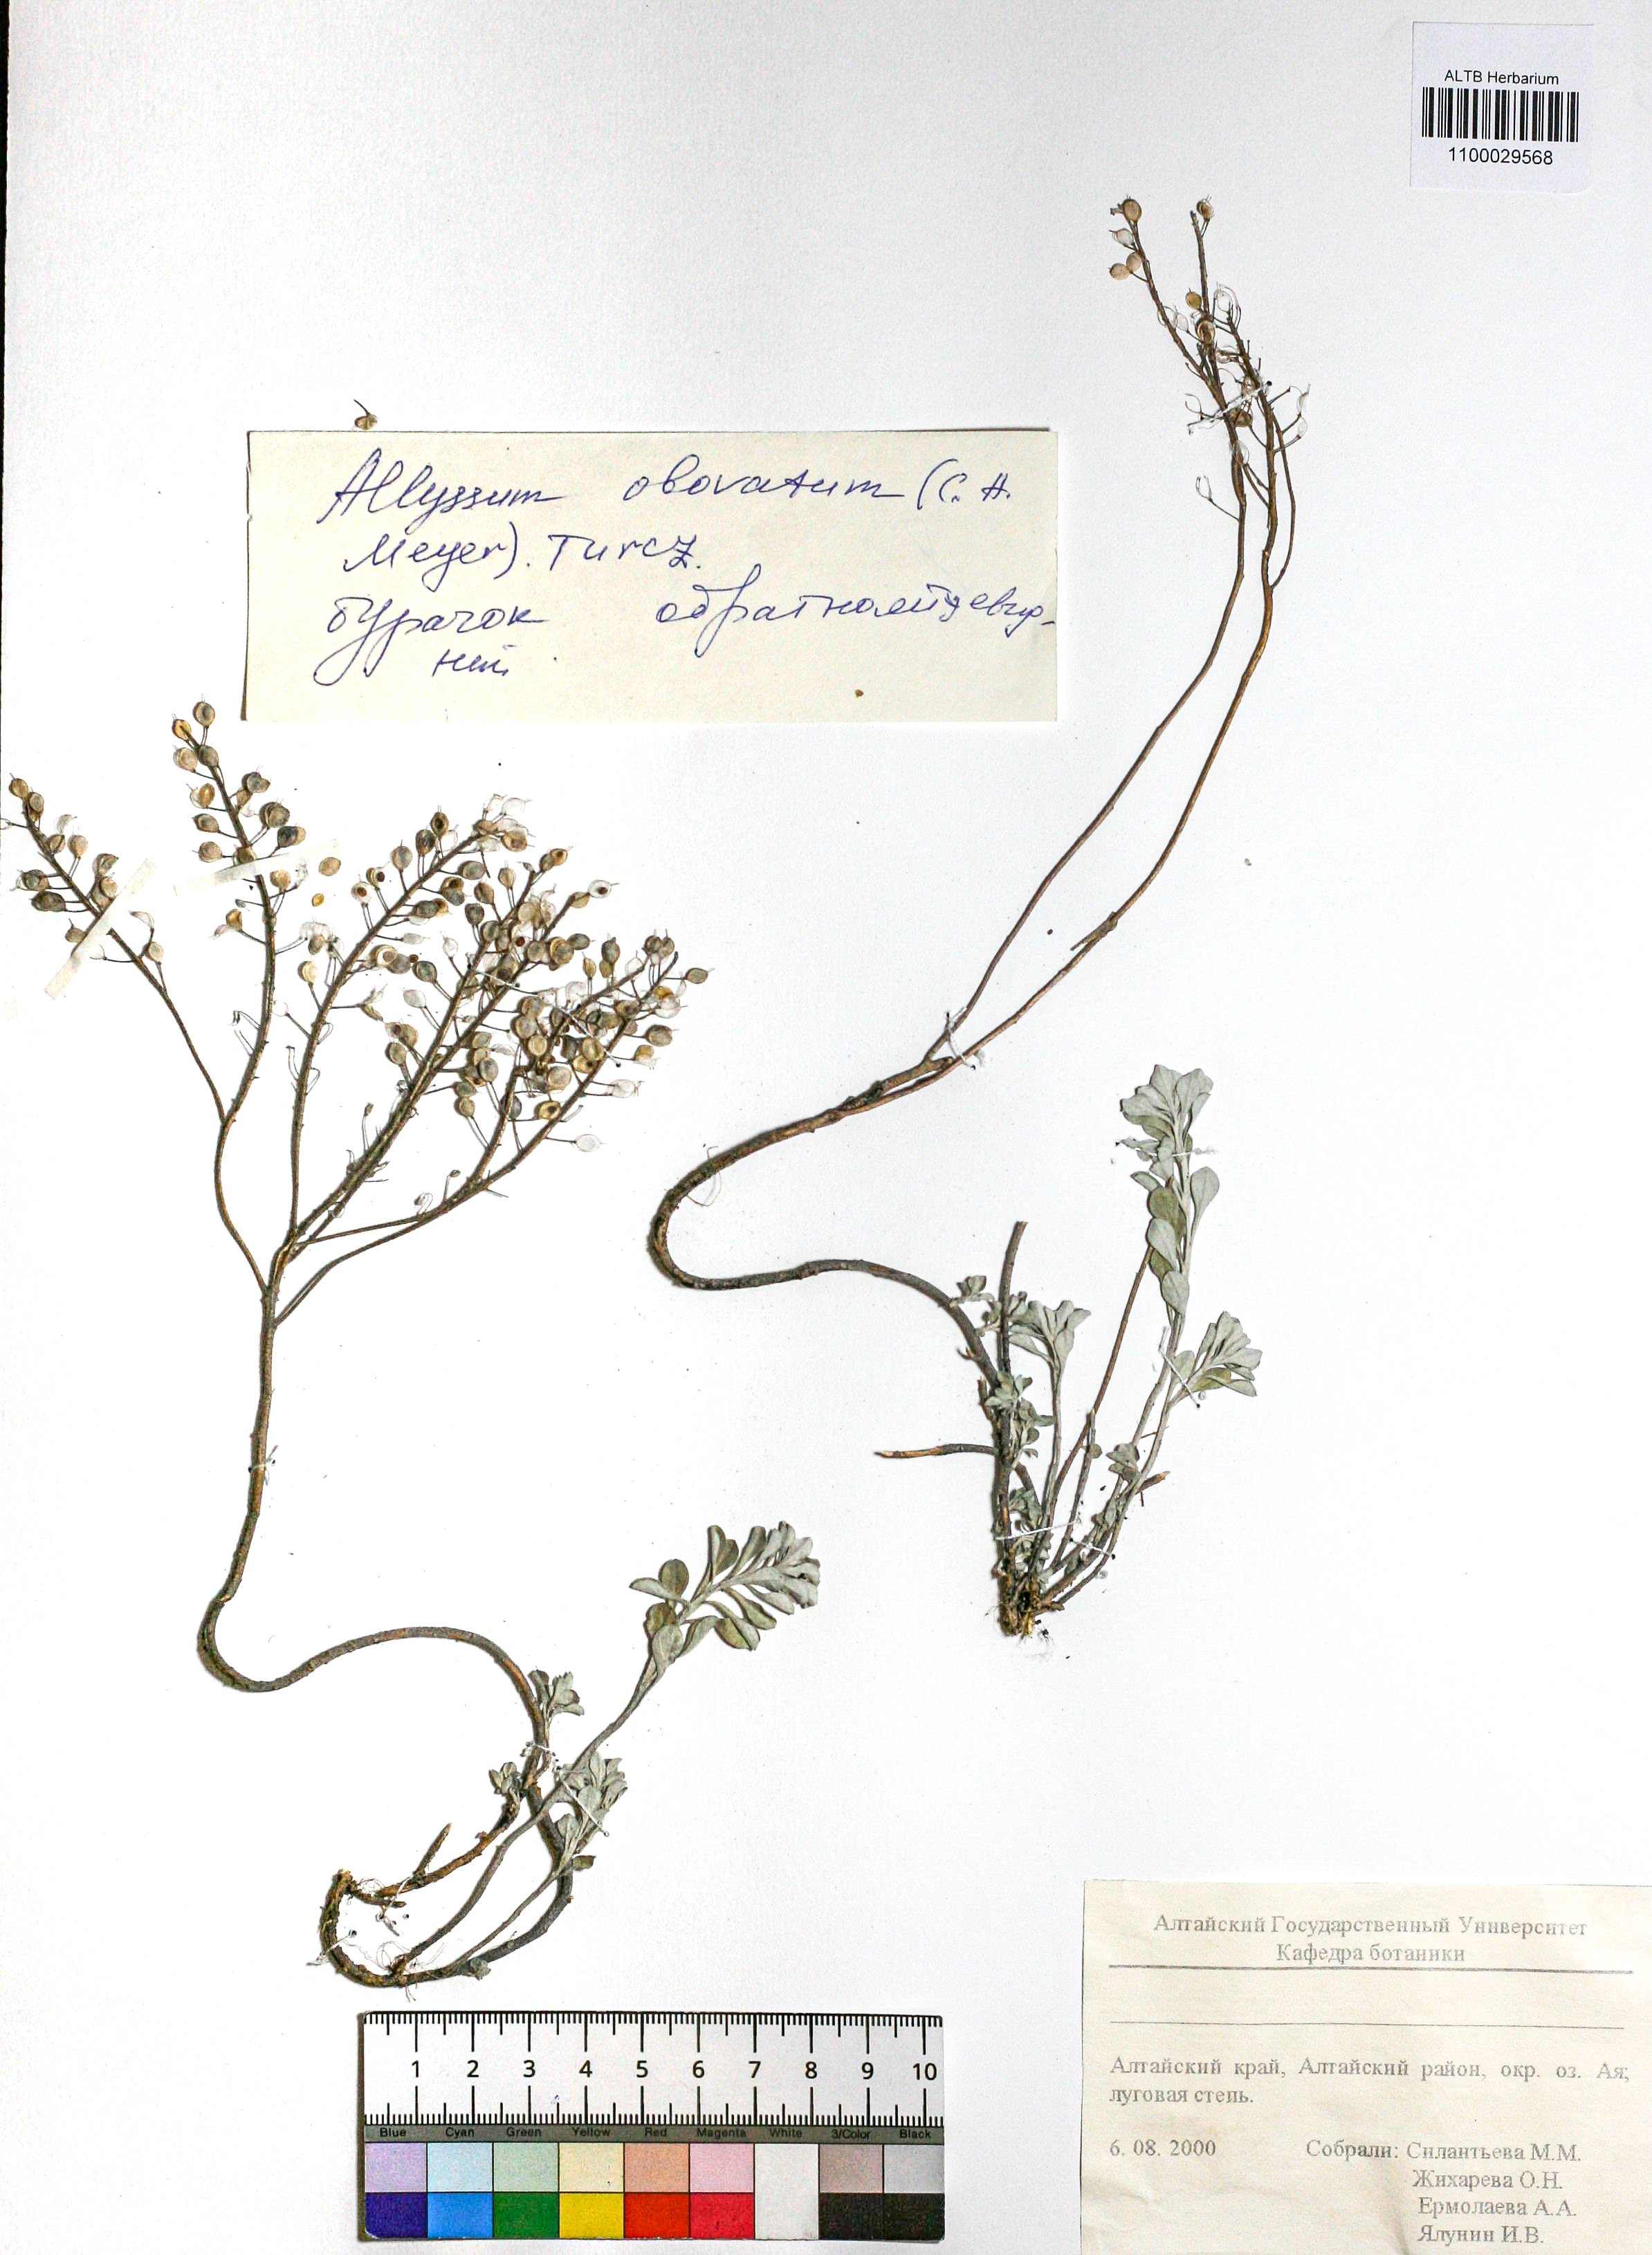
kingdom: Plantae
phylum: Tracheophyta
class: Magnoliopsida
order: Brassicales
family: Brassicaceae
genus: Odontarrhena
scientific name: Odontarrhena obovata
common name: American alyssum
